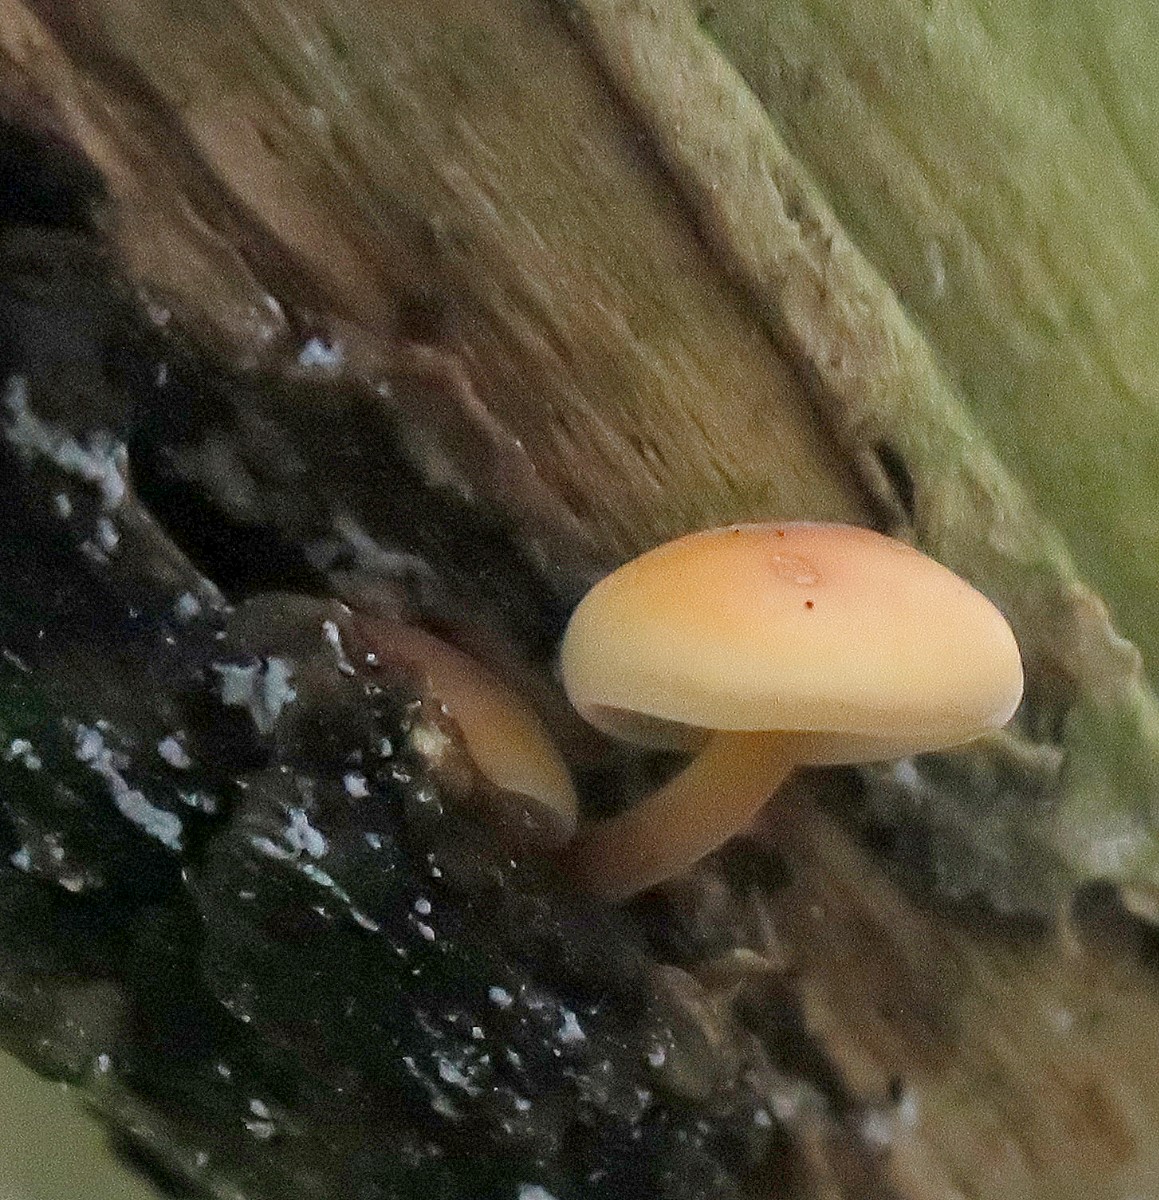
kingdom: Fungi
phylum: Basidiomycota
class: Agaricomycetes
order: Agaricales
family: Physalacriaceae
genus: Flammulina
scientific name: Flammulina velutipes
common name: gul fløjlsfod
